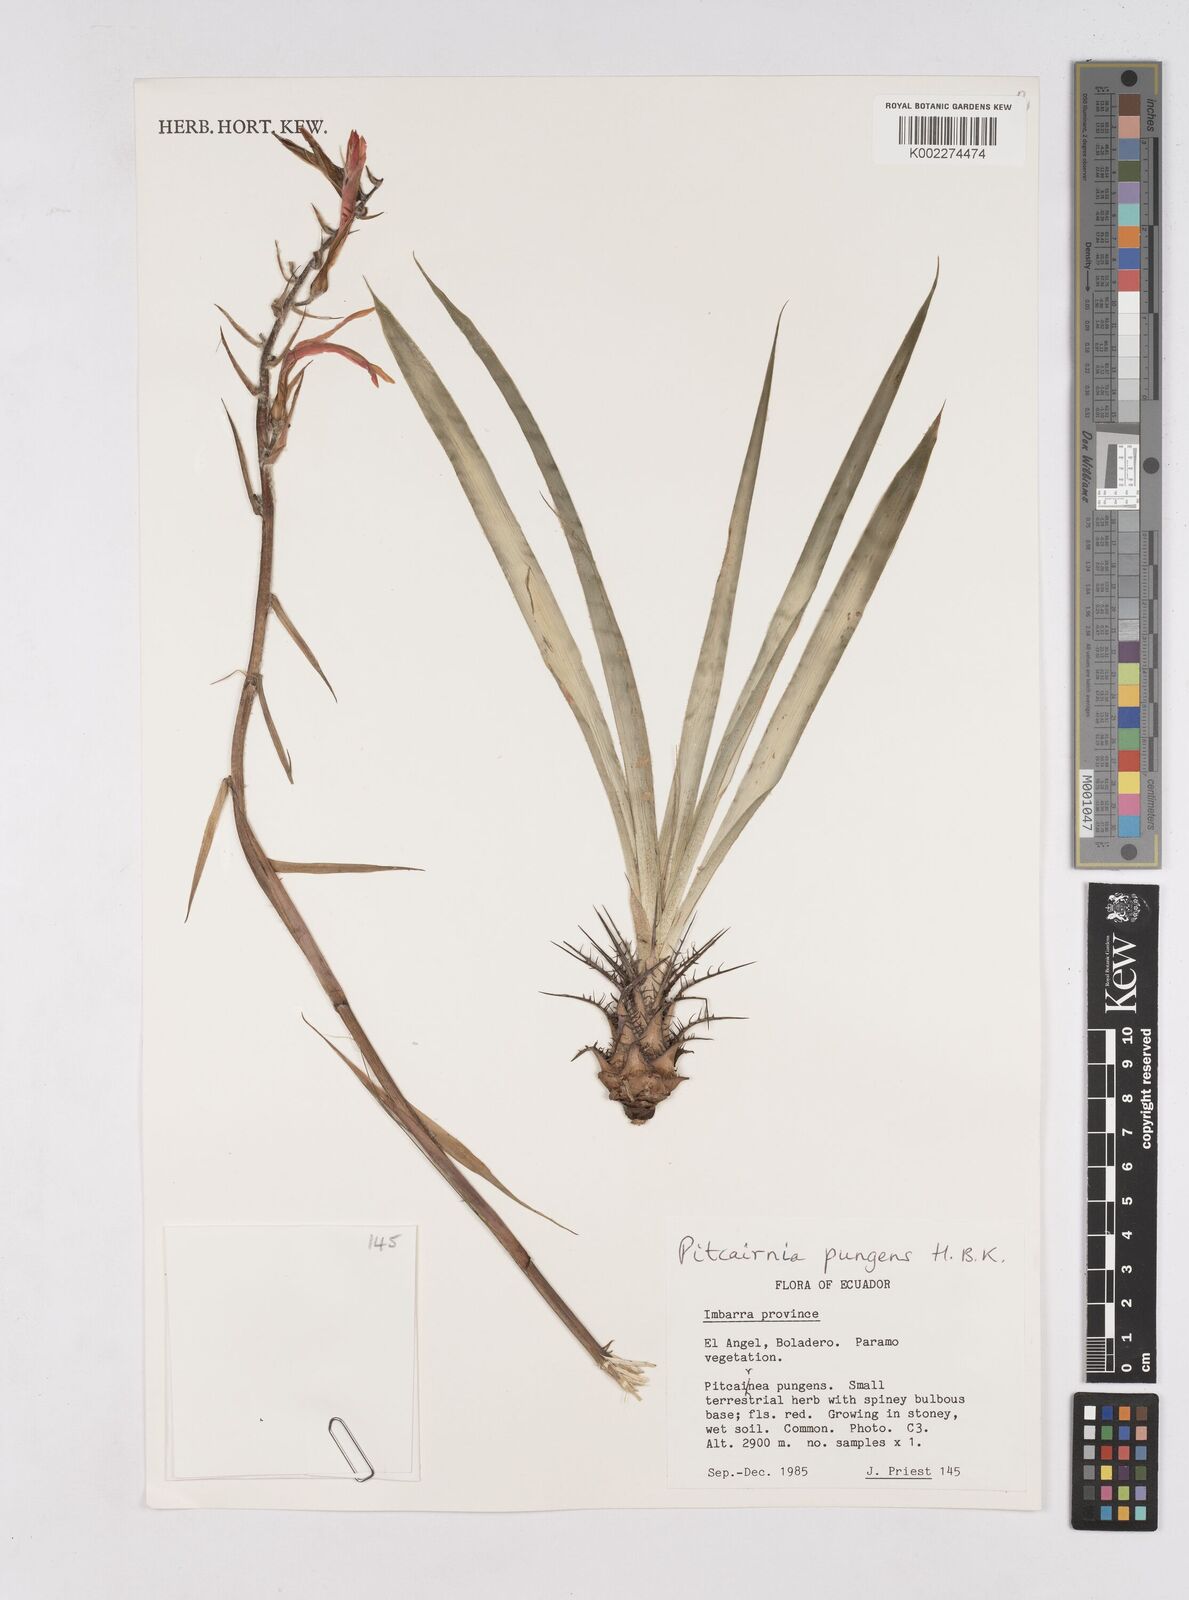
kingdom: Plantae
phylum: Tracheophyta
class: Liliopsida
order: Poales
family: Bromeliaceae
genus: Pitcairnia
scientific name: Pitcairnia pungens
